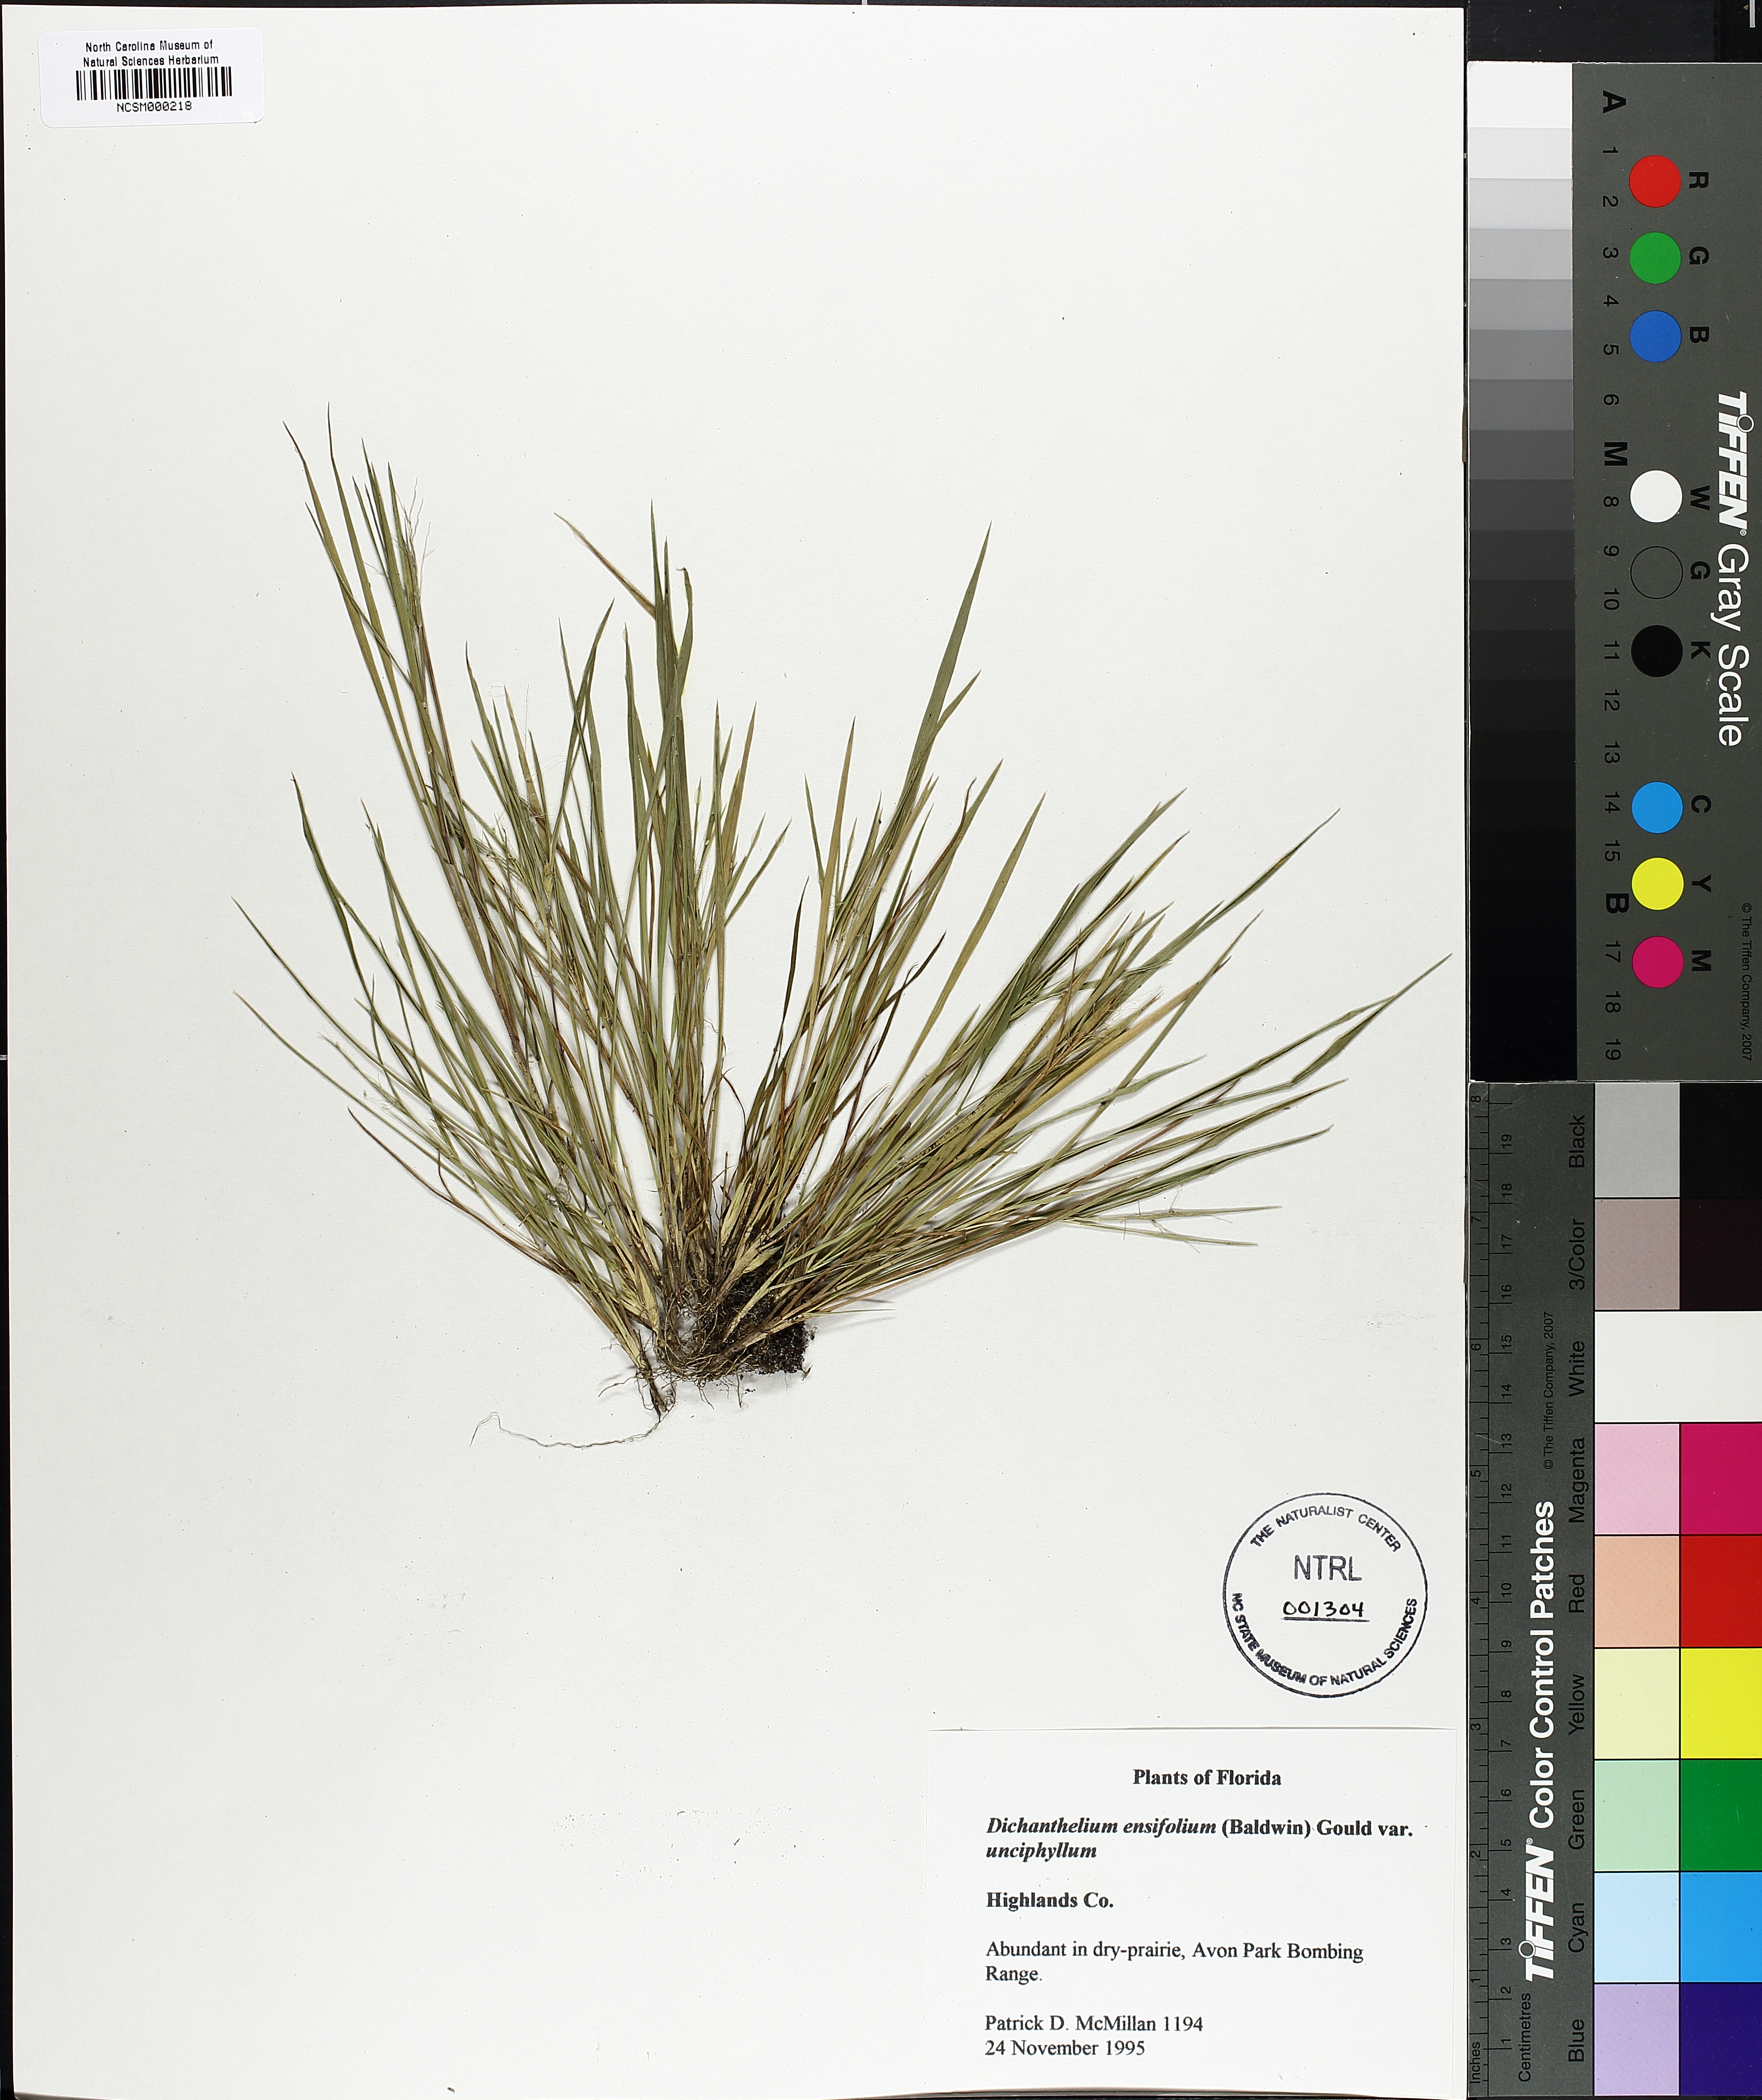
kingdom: Plantae
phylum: Tracheophyta
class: Liliopsida
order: Poales
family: Poaceae
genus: Dichanthelium
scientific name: Dichanthelium tenue
